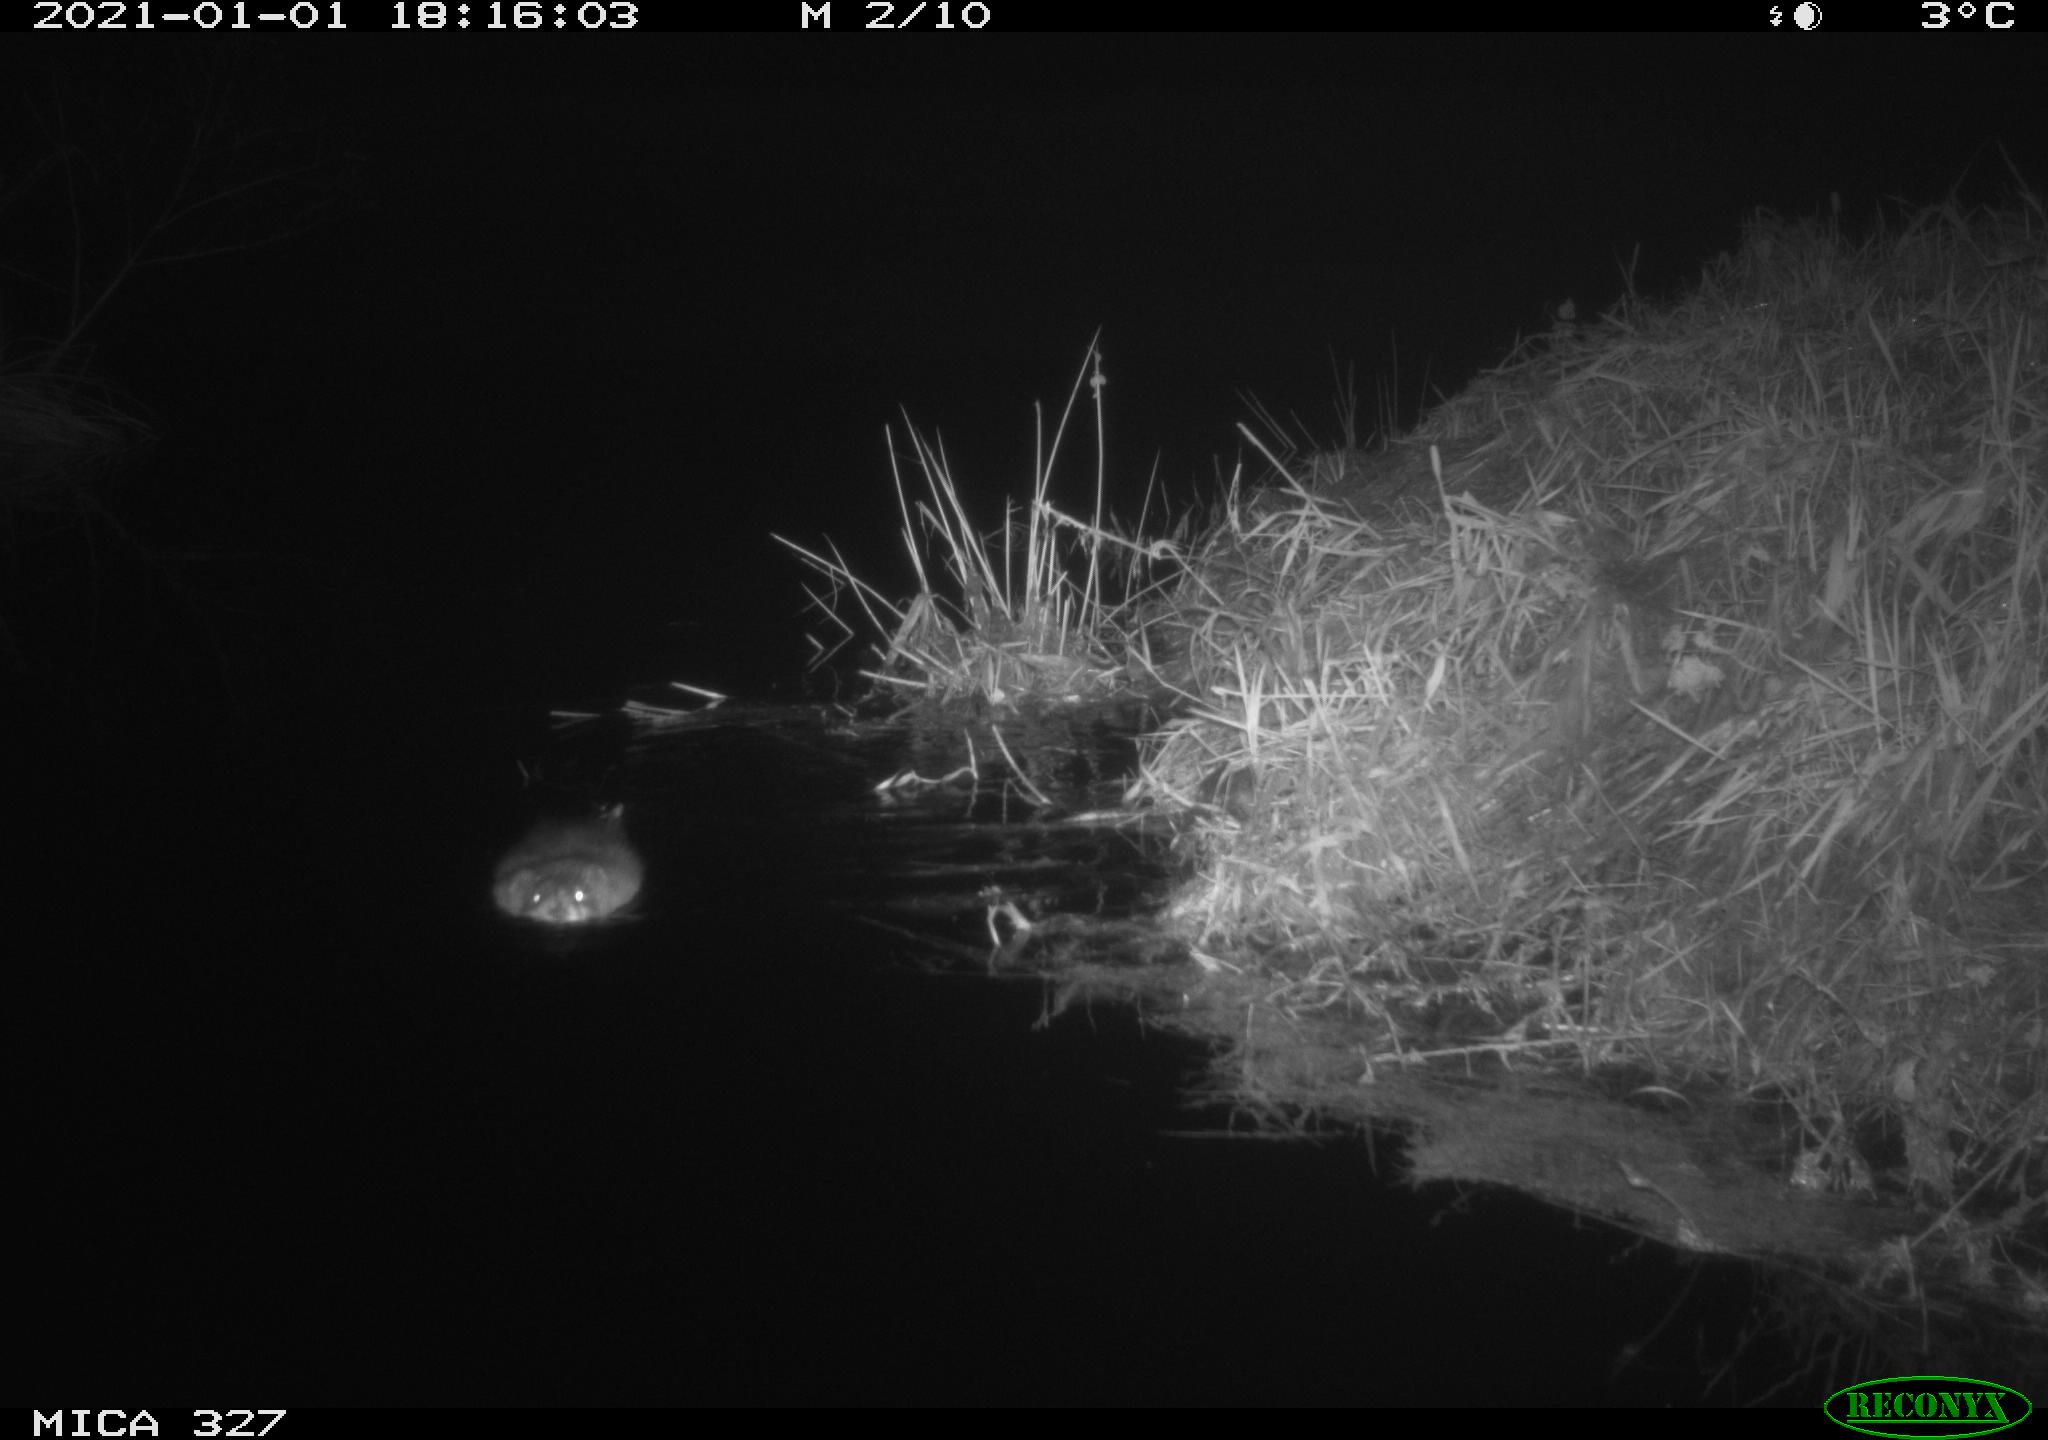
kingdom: Animalia
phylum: Chordata
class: Mammalia
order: Rodentia
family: Cricetidae
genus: Ondatra
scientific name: Ondatra zibethicus
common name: Muskrat
